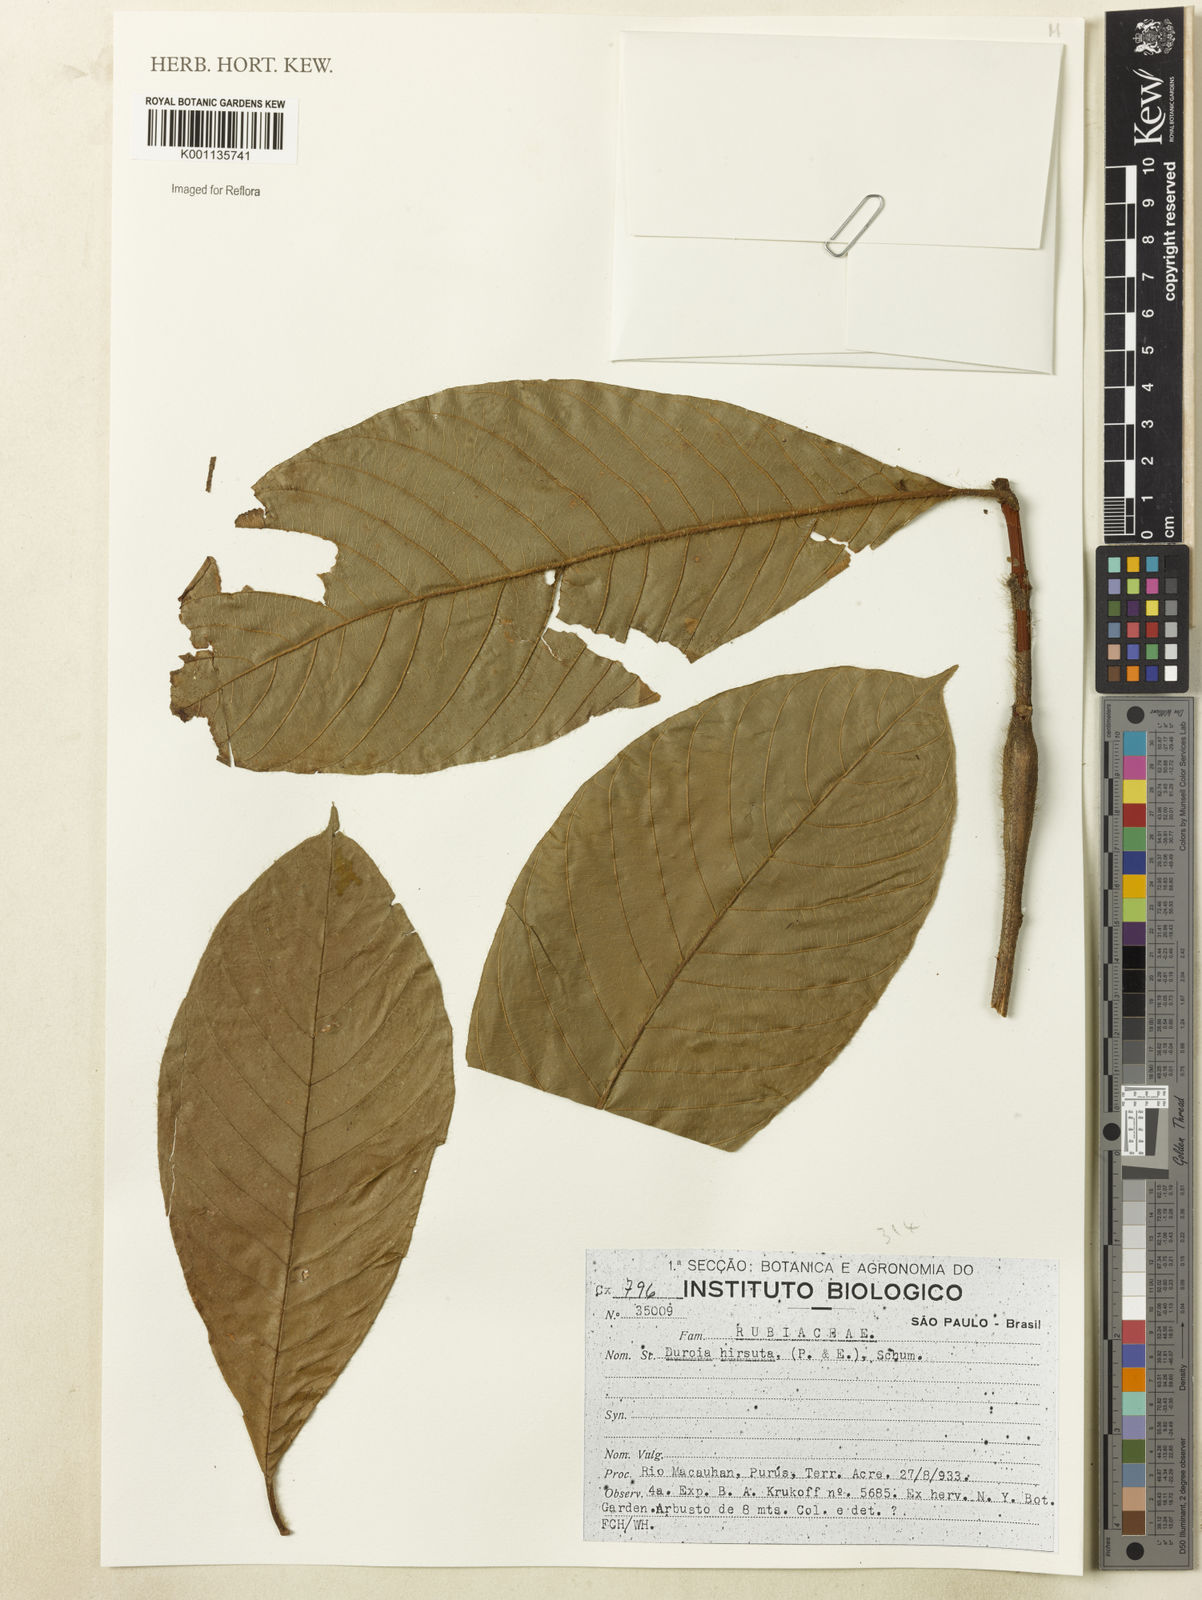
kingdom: Plantae
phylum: Tracheophyta
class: Magnoliopsida
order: Gentianales
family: Rubiaceae
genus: Duroia
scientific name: Duroia hirsuta
